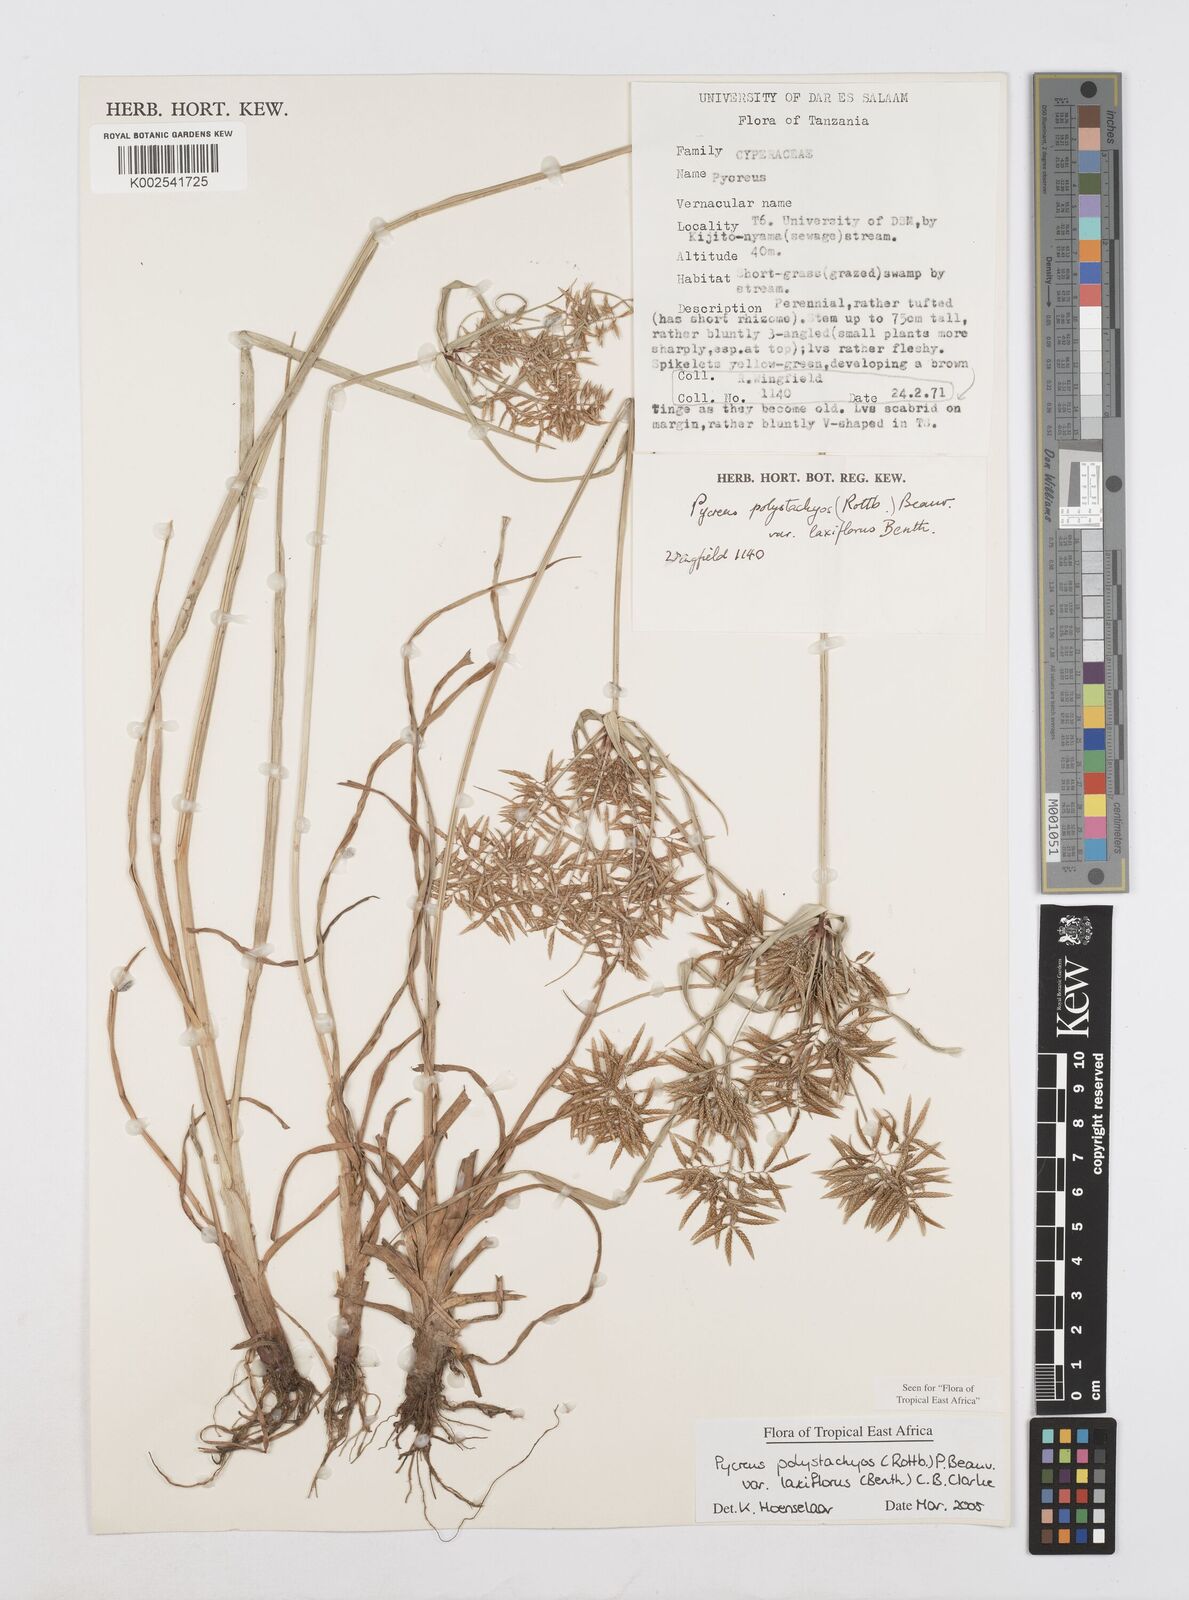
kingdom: Plantae
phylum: Tracheophyta
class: Liliopsida
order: Poales
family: Cyperaceae
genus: Cyperus
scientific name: Cyperus polystachyos
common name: Bunchy flat sedge
